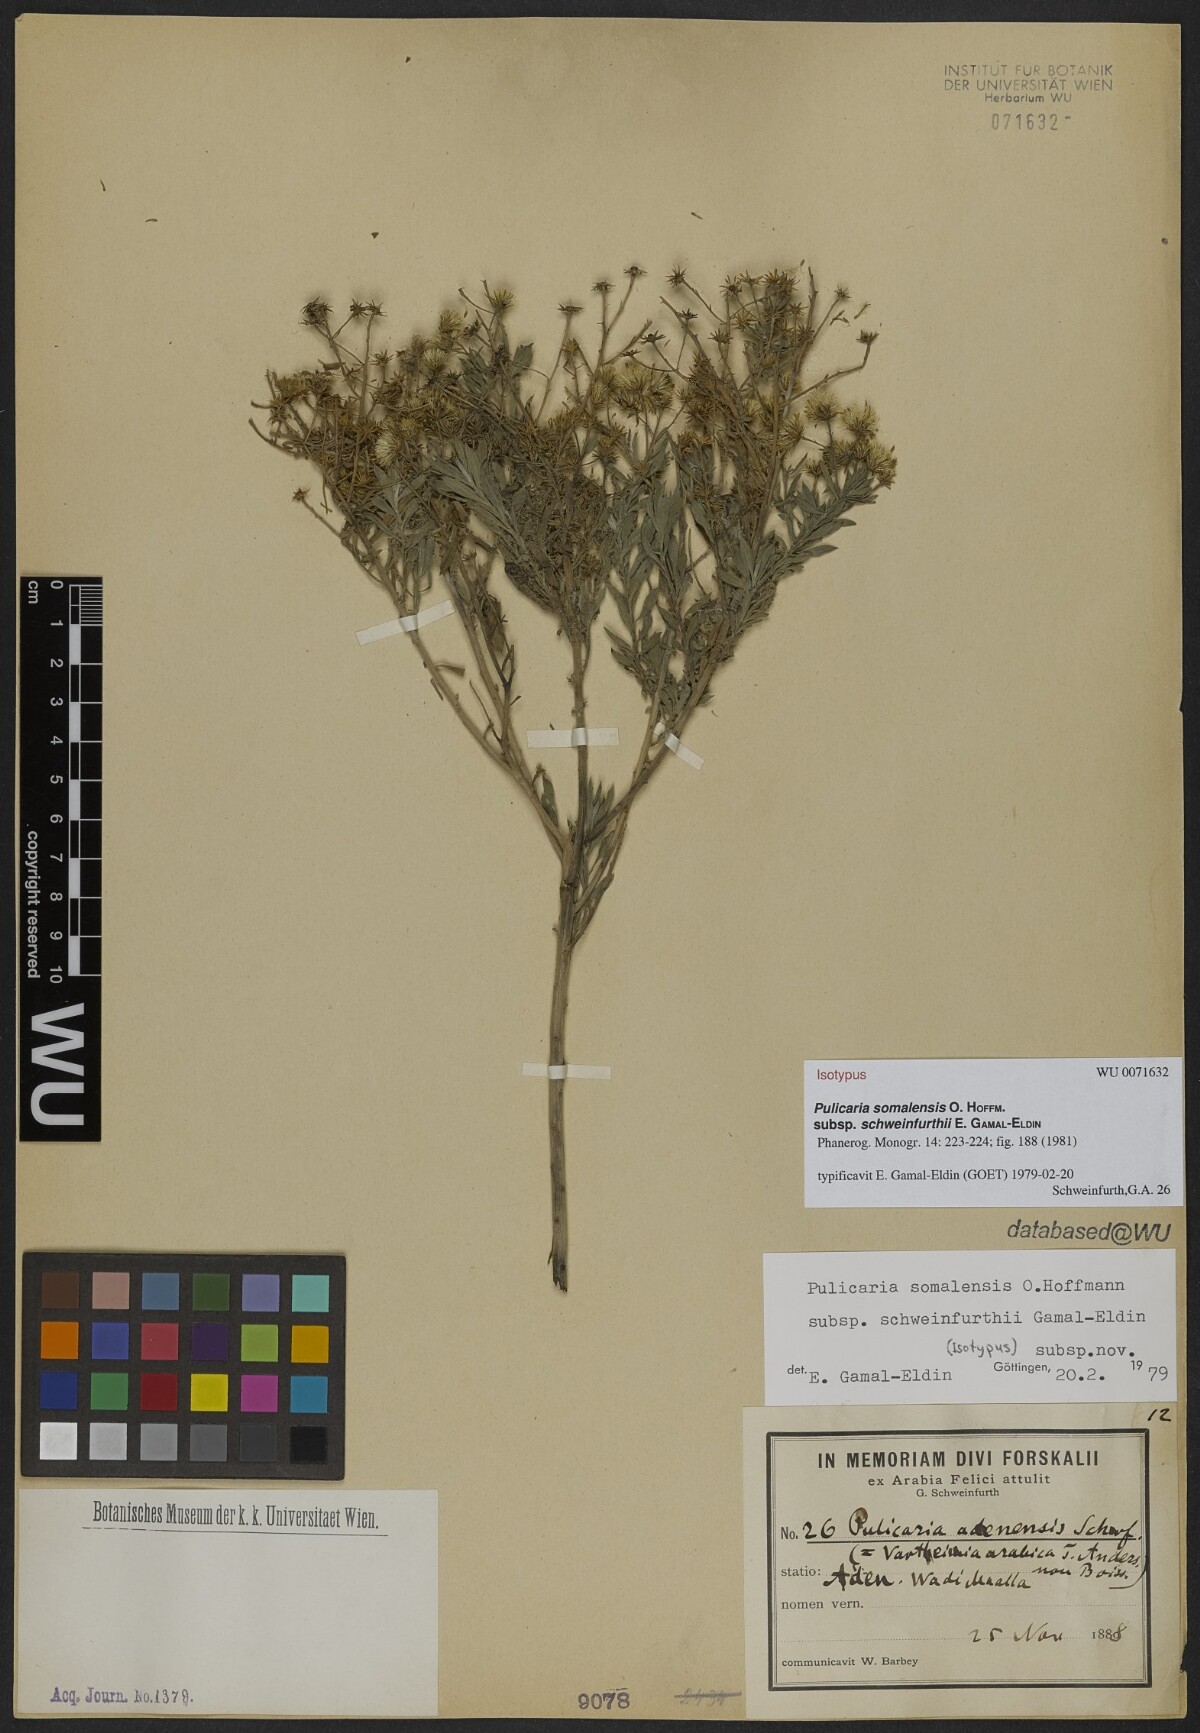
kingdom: Plantae
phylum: Tracheophyta
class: Magnoliopsida
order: Asterales
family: Asteraceae
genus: Pulicaria
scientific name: Pulicaria somalensis
